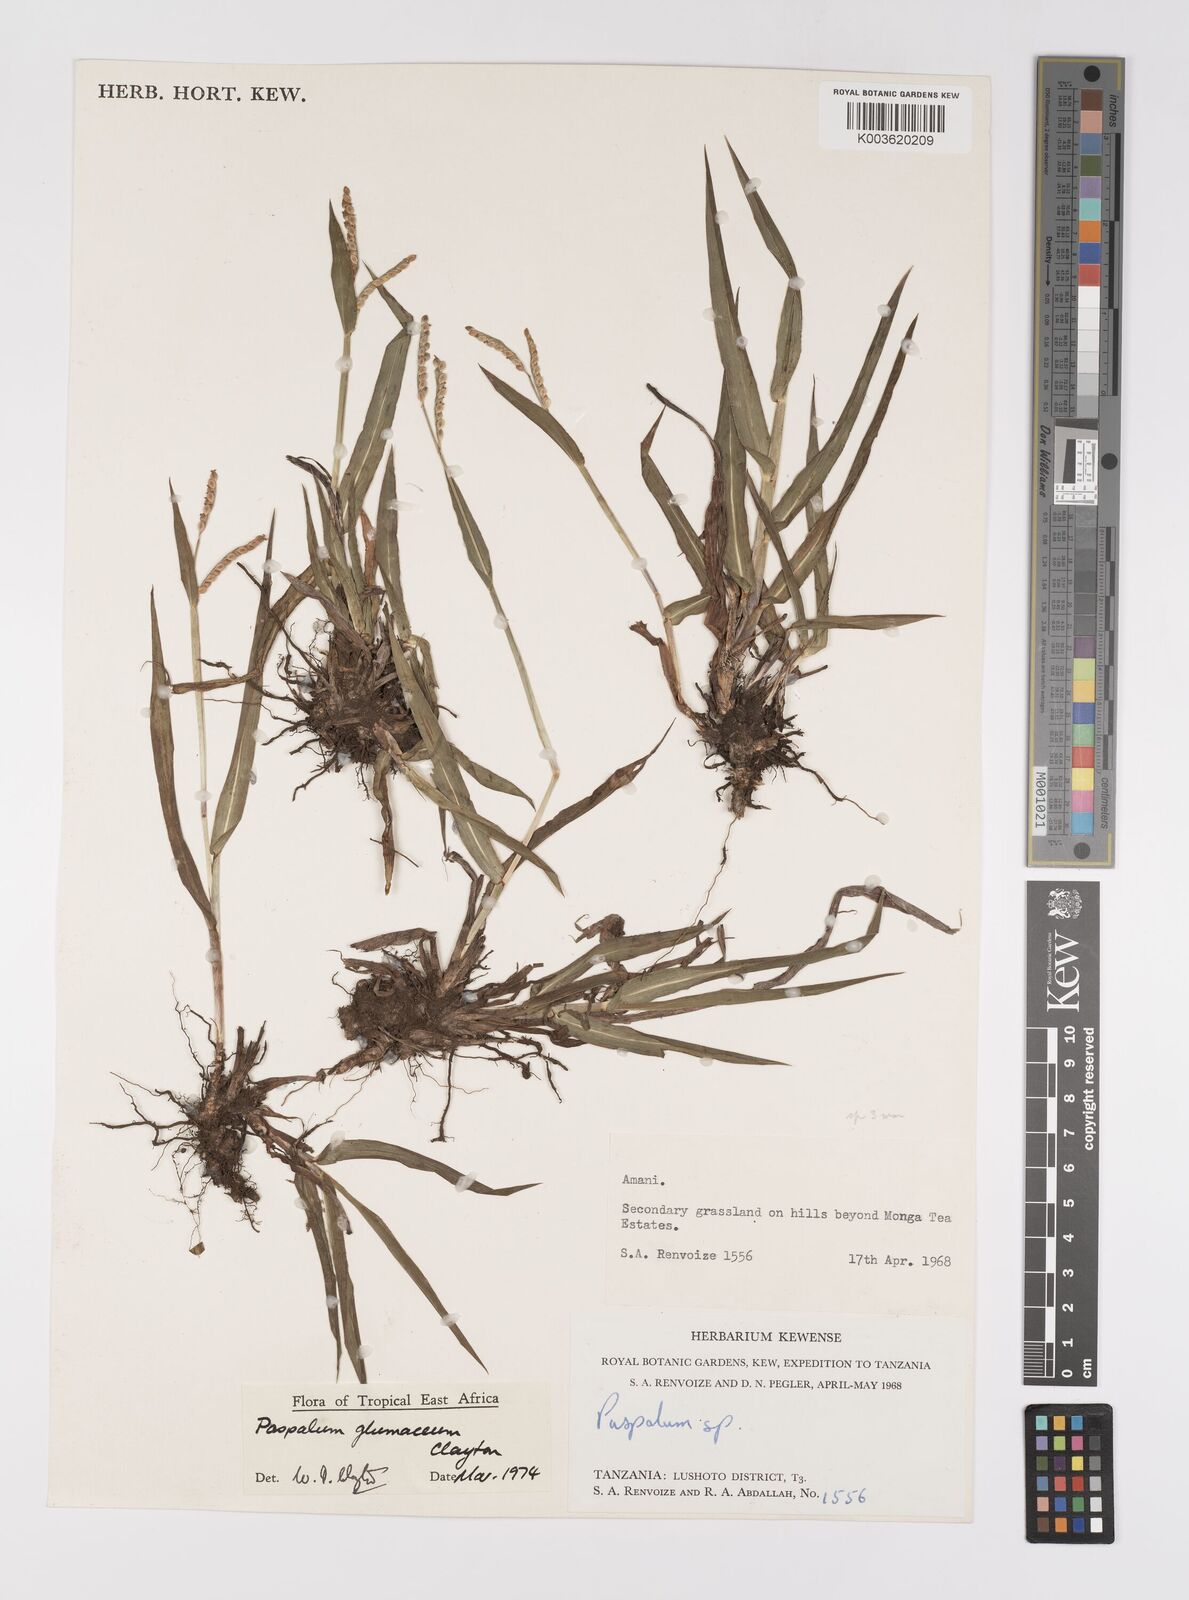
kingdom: Plantae
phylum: Tracheophyta
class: Liliopsida
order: Poales
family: Poaceae
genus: Paspalum
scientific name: Paspalum glumaceum
